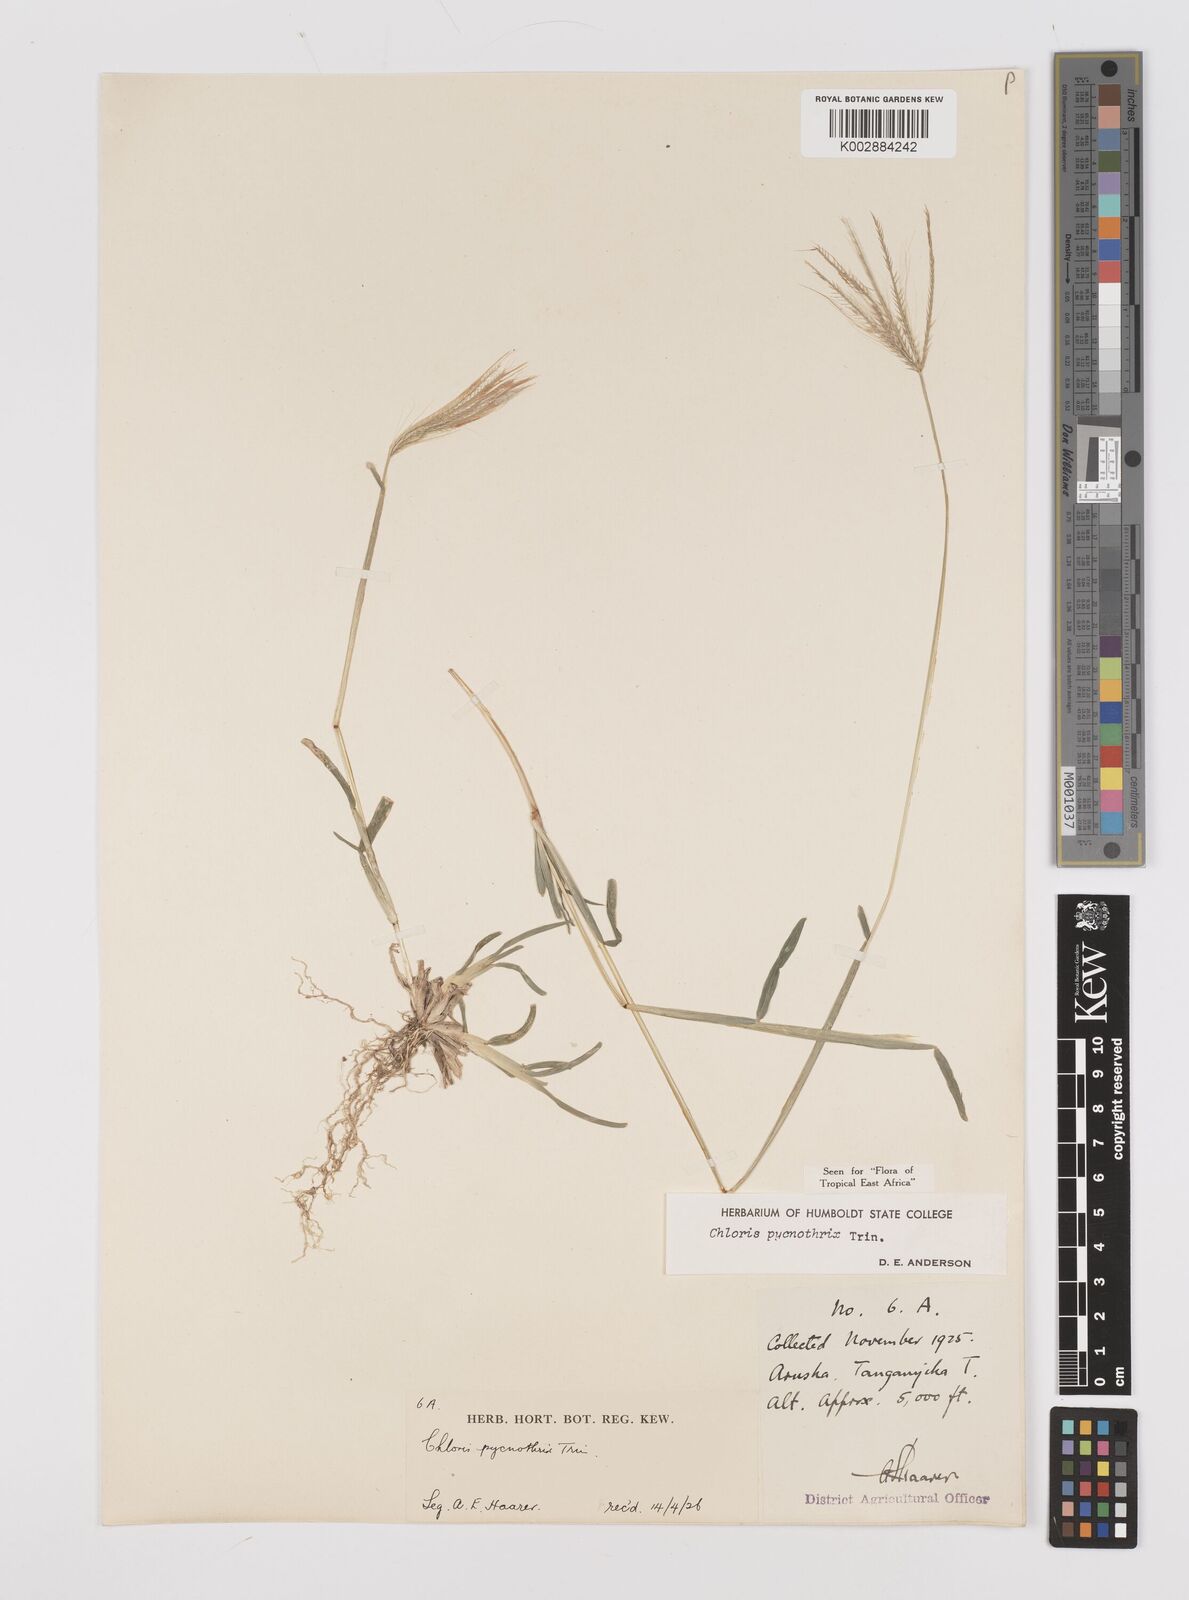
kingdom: Plantae
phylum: Tracheophyta
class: Liliopsida
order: Poales
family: Poaceae
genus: Chloris
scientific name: Chloris pycnothrix
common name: Spiderweb chloris
